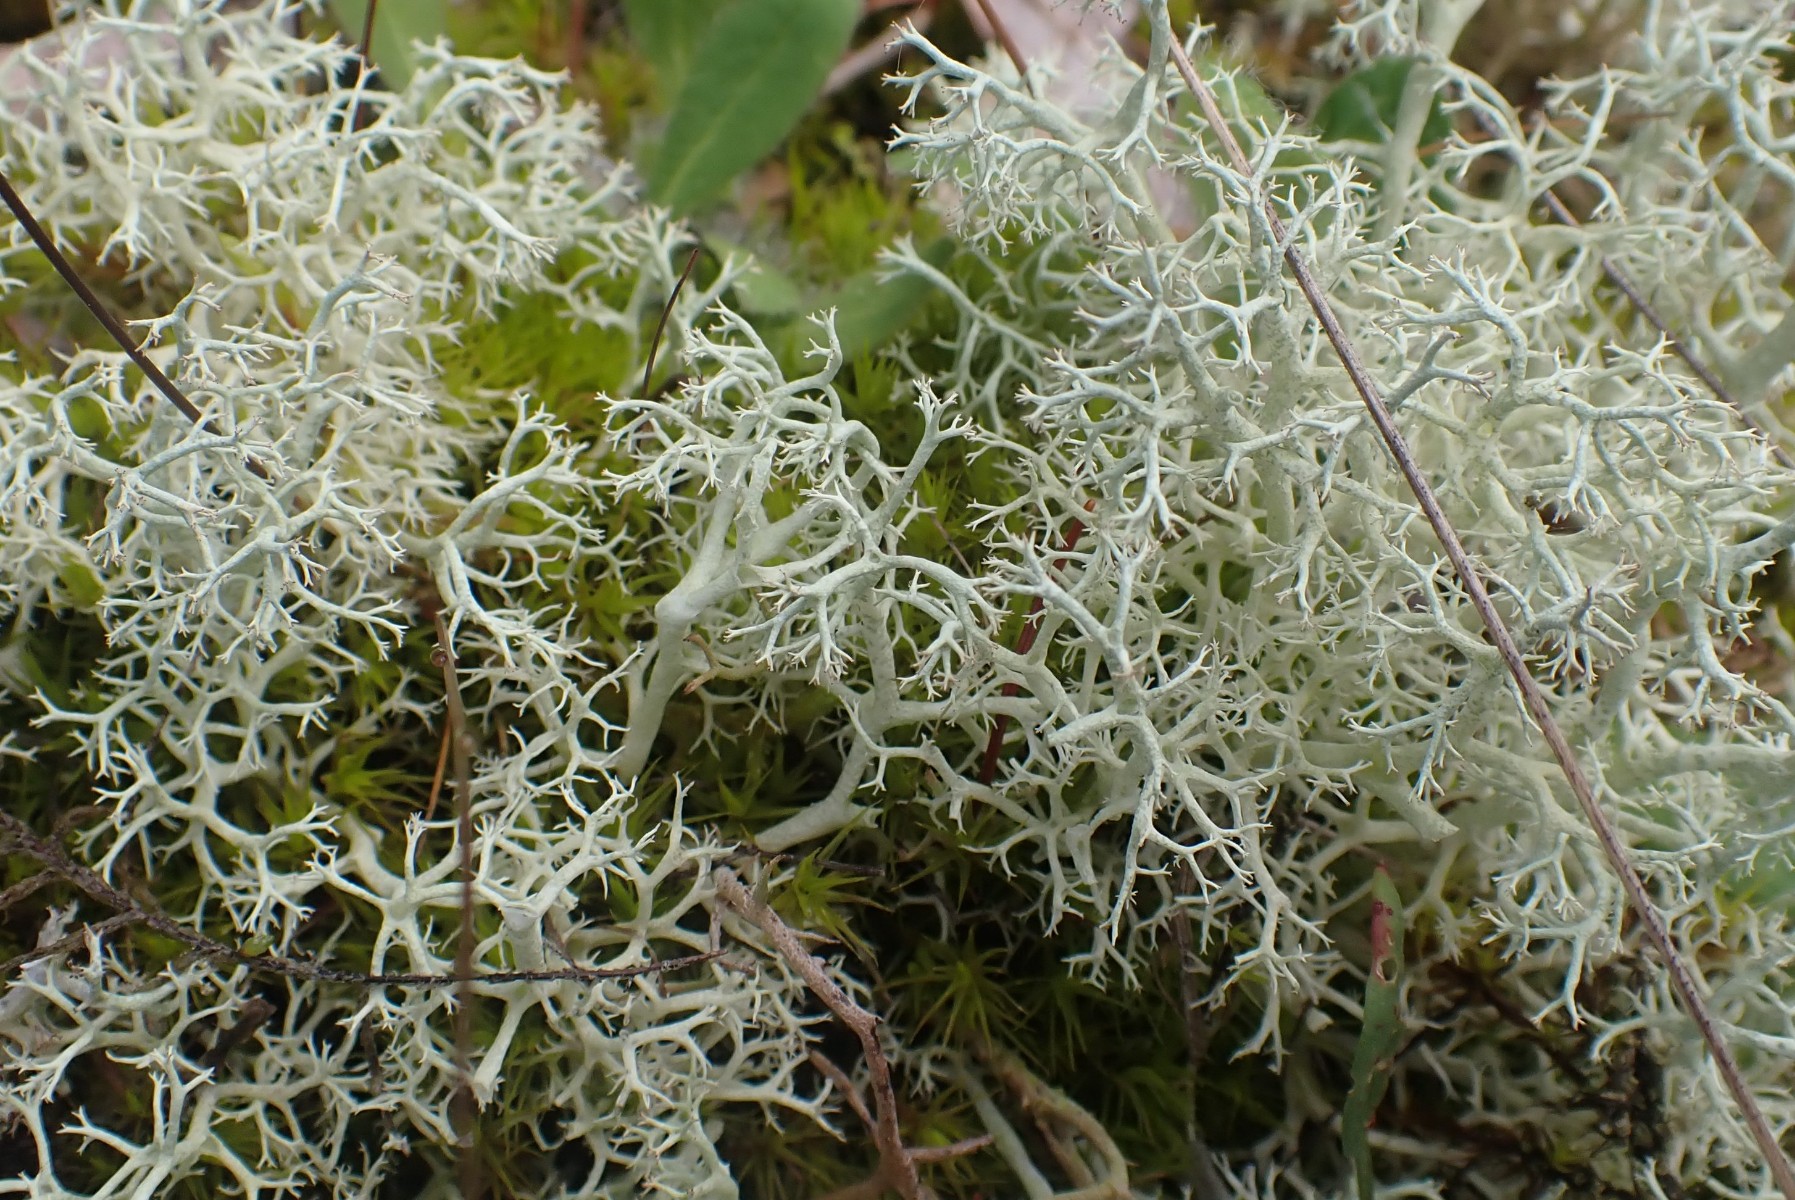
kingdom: Fungi
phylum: Ascomycota
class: Lecanoromycetes
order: Lecanorales
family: Cladoniaceae
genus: Cladonia
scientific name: Cladonia portentosa
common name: hede-rensdyrlav
